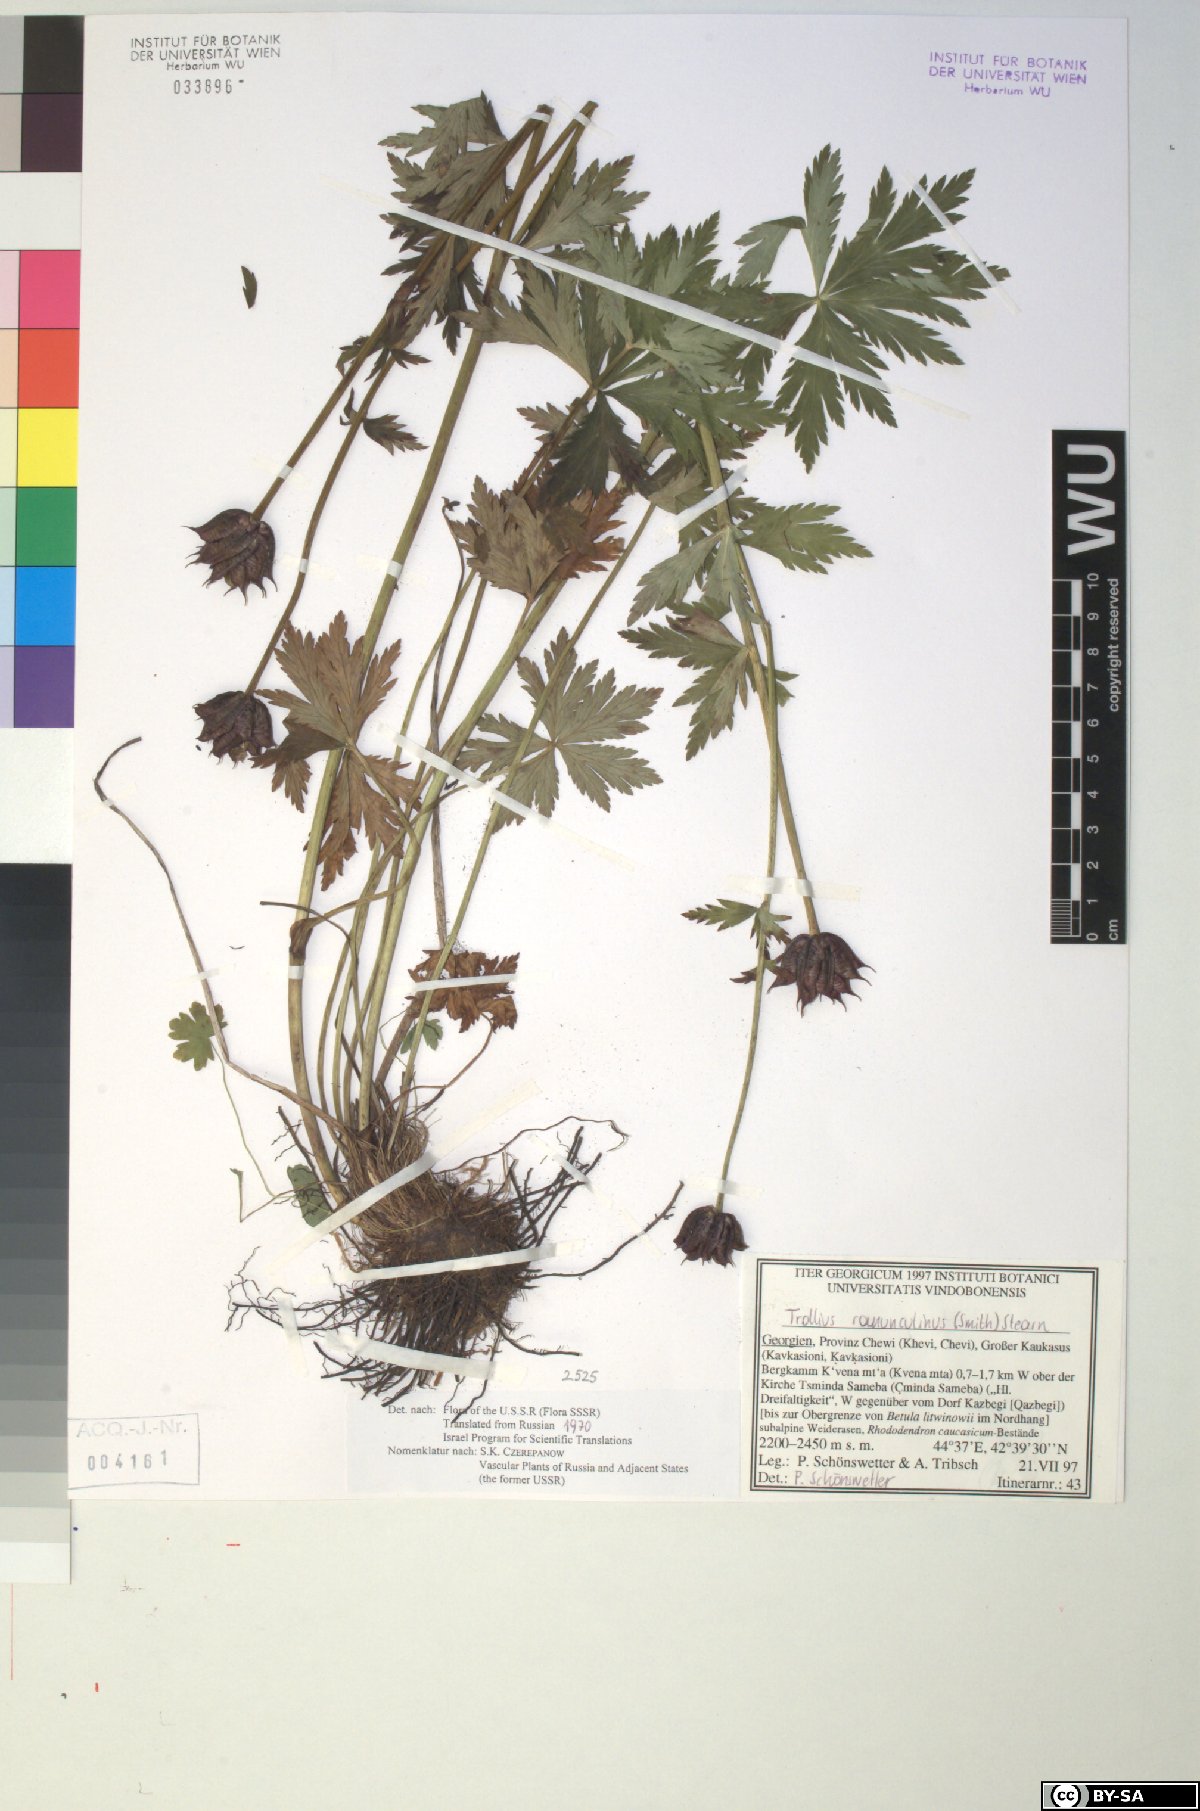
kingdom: Plantae
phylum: Tracheophyta
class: Magnoliopsida
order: Ranunculales
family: Ranunculaceae
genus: Trollius
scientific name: Trollius ranunculinus
